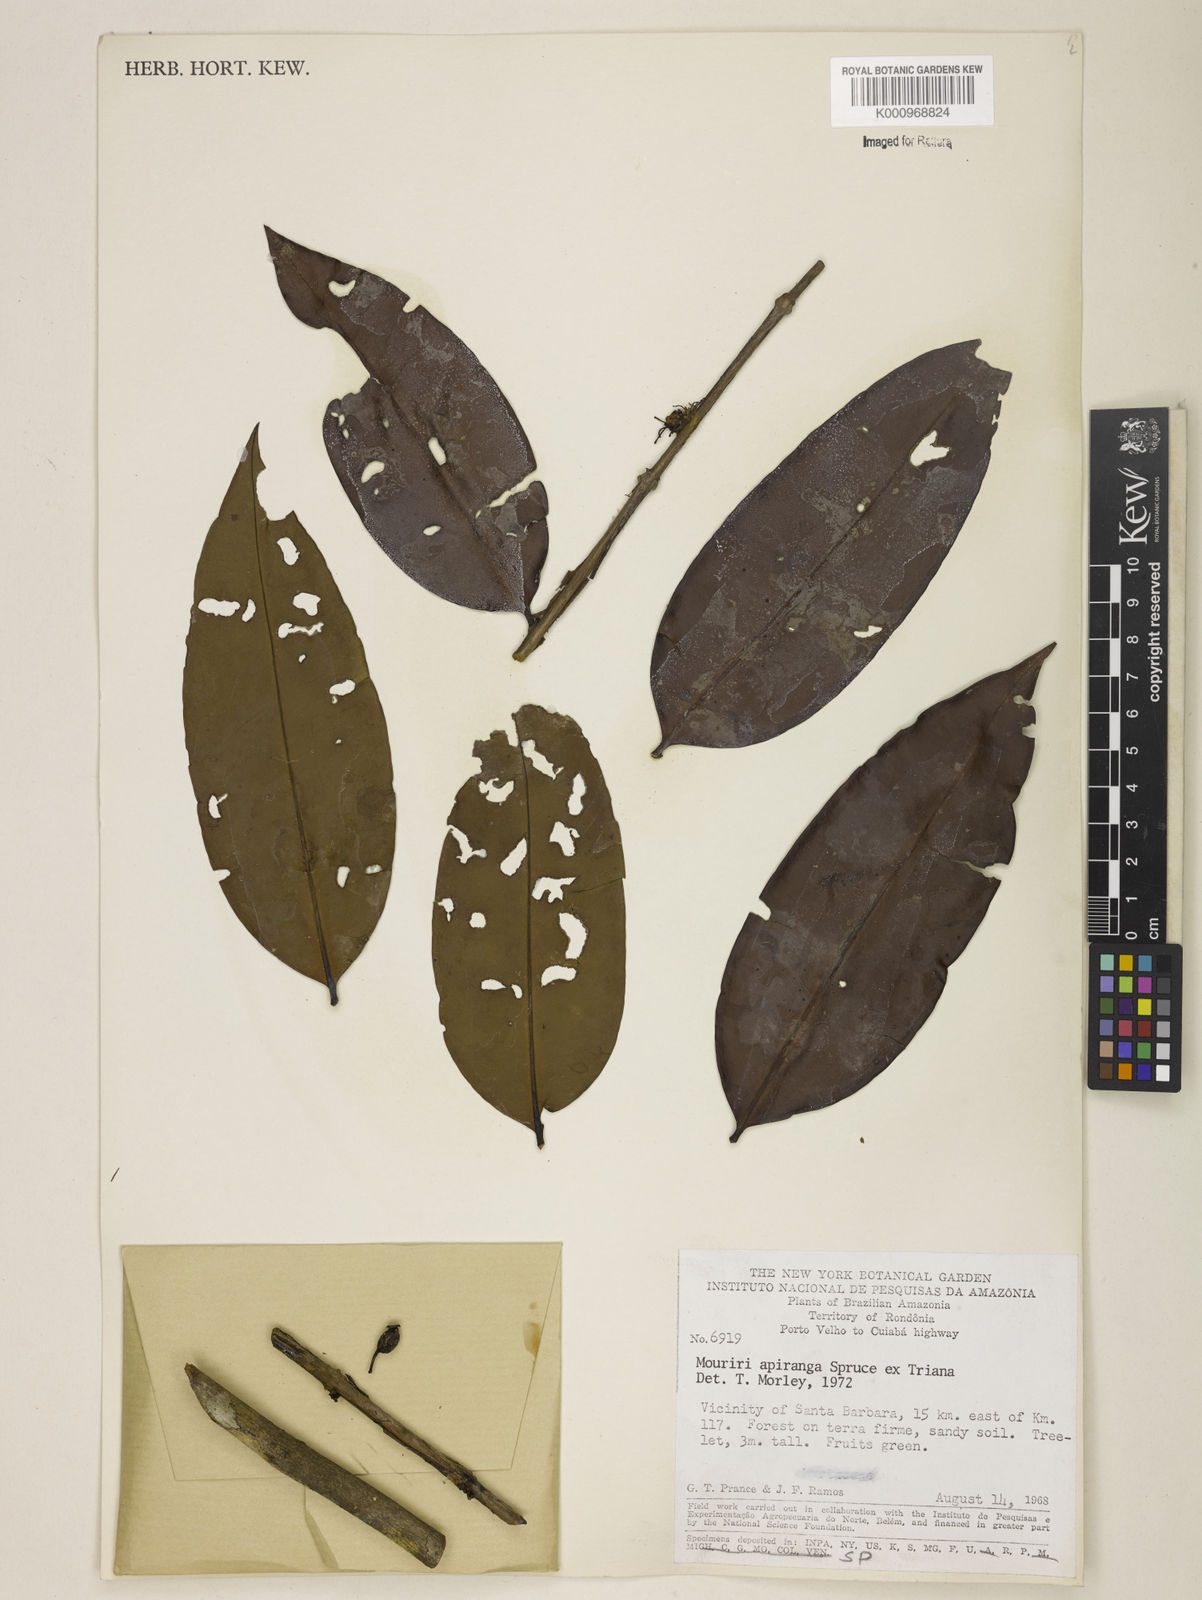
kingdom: Plantae
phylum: Tracheophyta
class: Magnoliopsida
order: Myrtales
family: Melastomataceae
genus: Mouriri
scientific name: Mouriri apiranga
